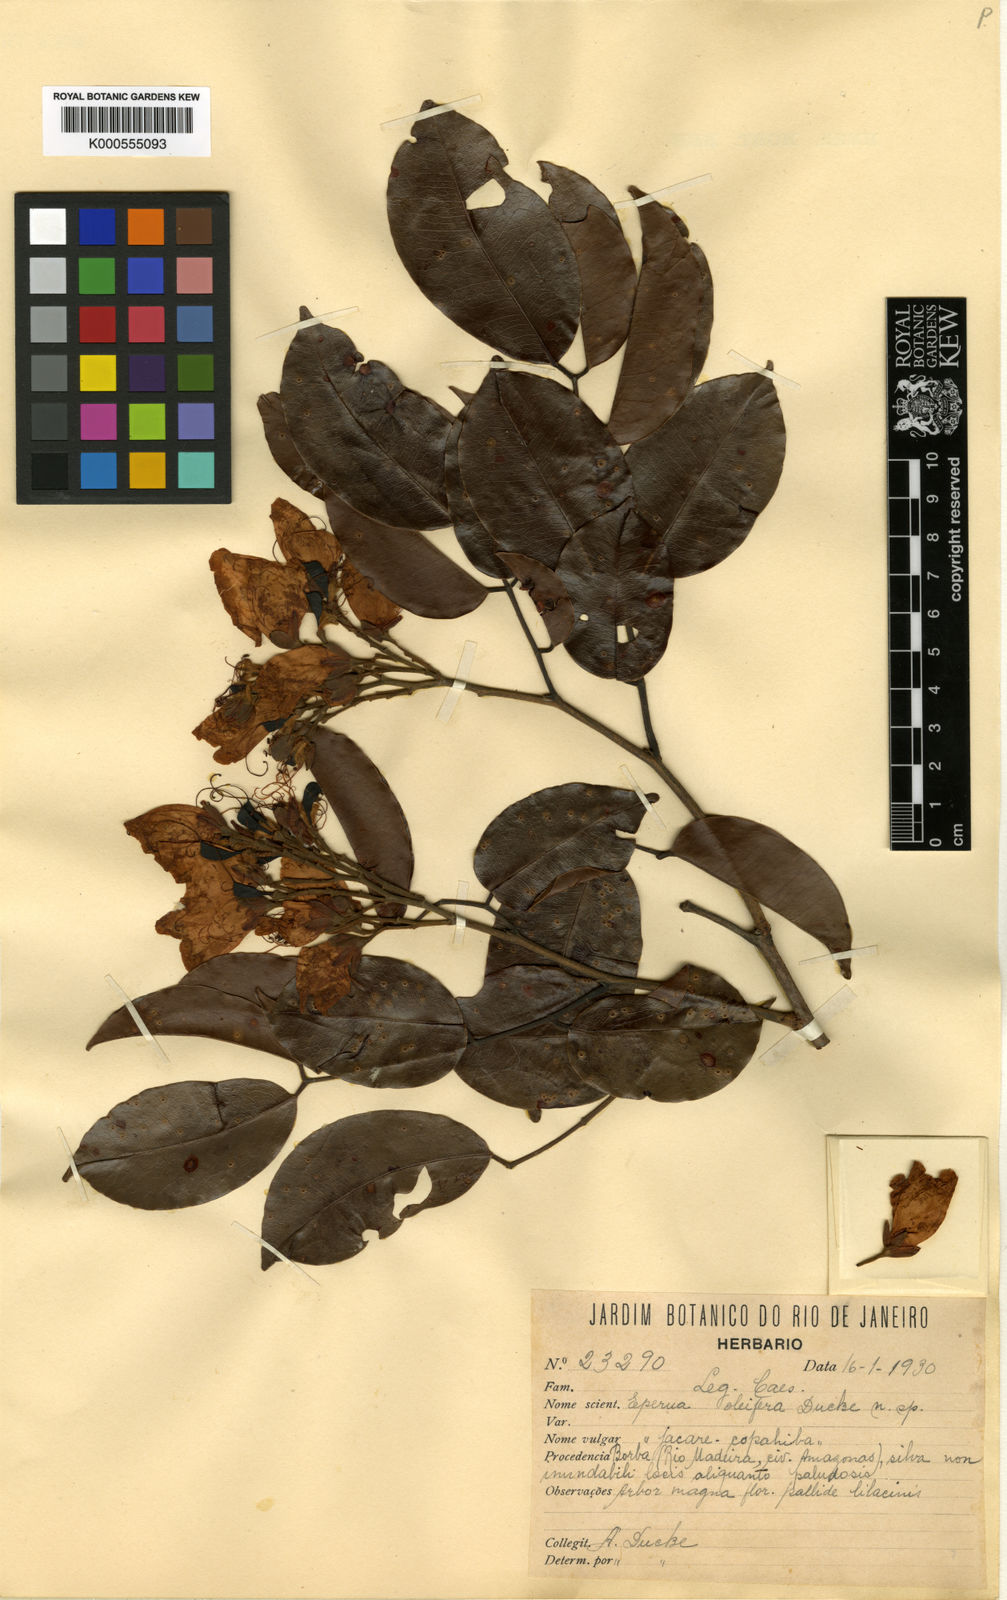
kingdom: Plantae
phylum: Tracheophyta
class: Magnoliopsida
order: Fabales
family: Fabaceae
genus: Eperua
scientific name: Eperua oleifera
